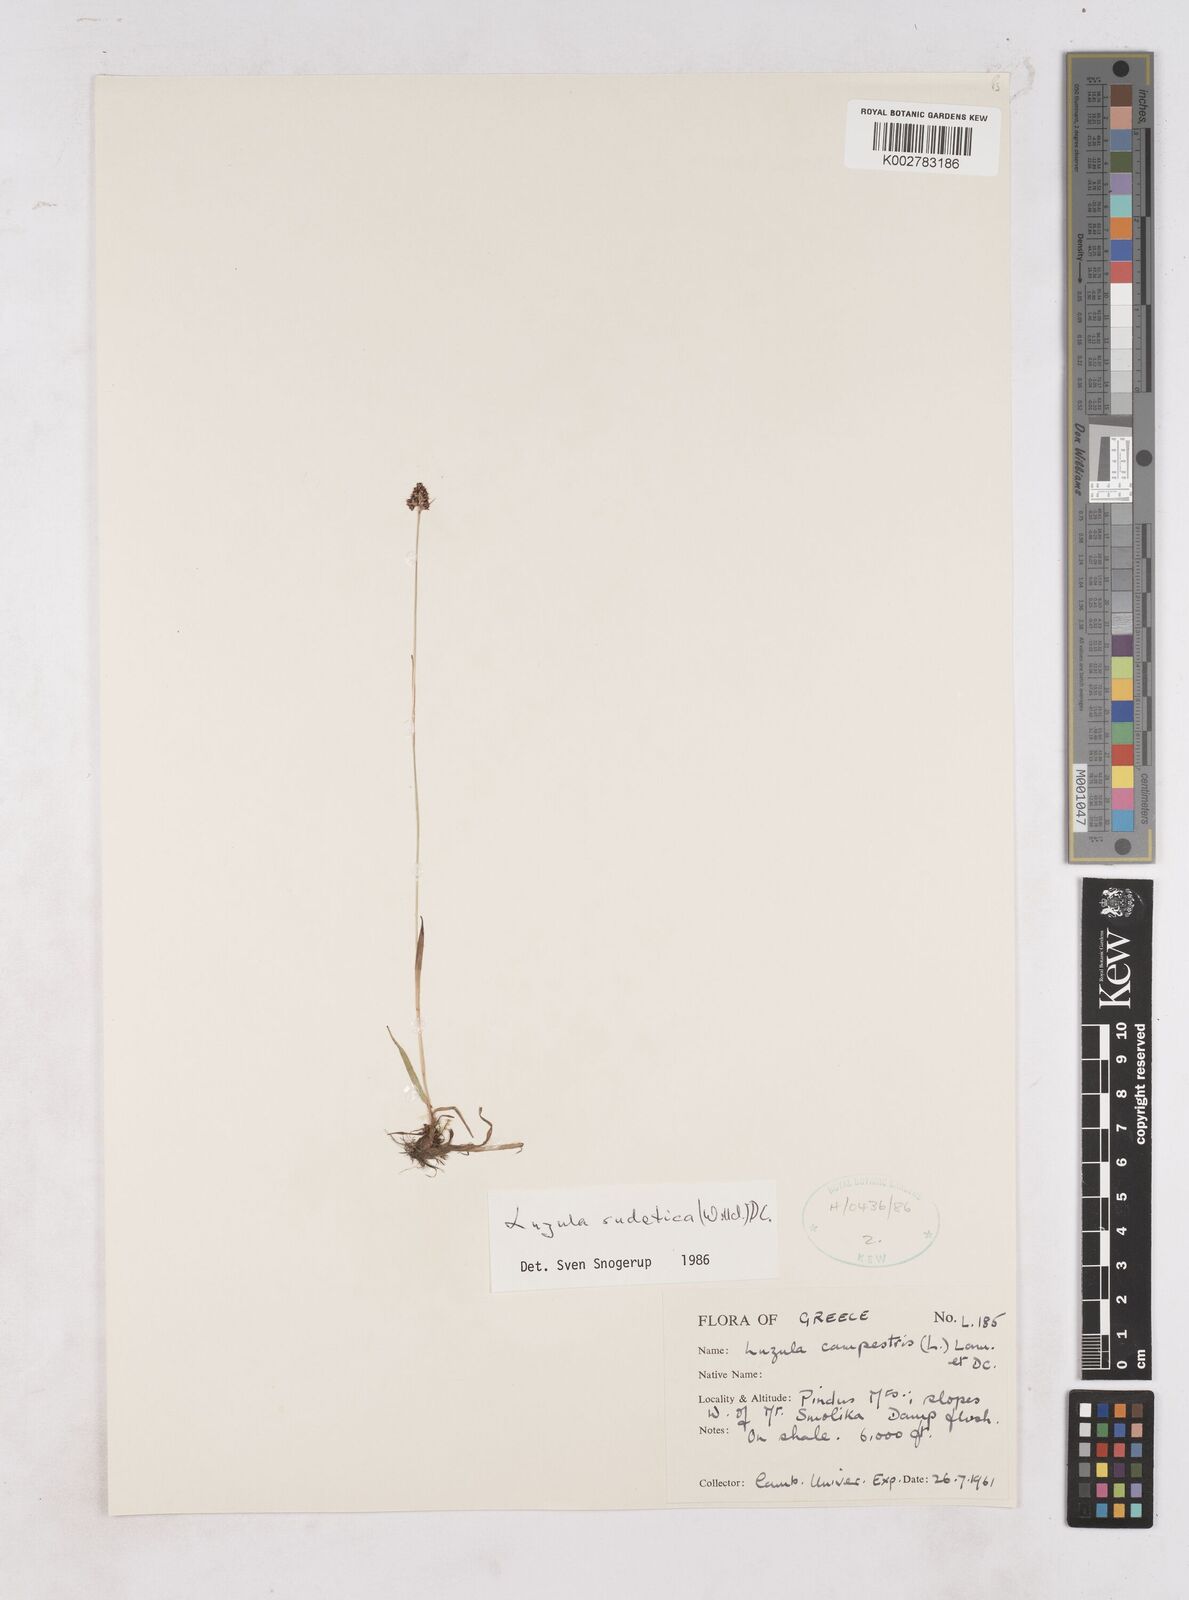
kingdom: Plantae
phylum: Tracheophyta
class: Liliopsida
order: Poales
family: Juncaceae
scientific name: Juncaceae
